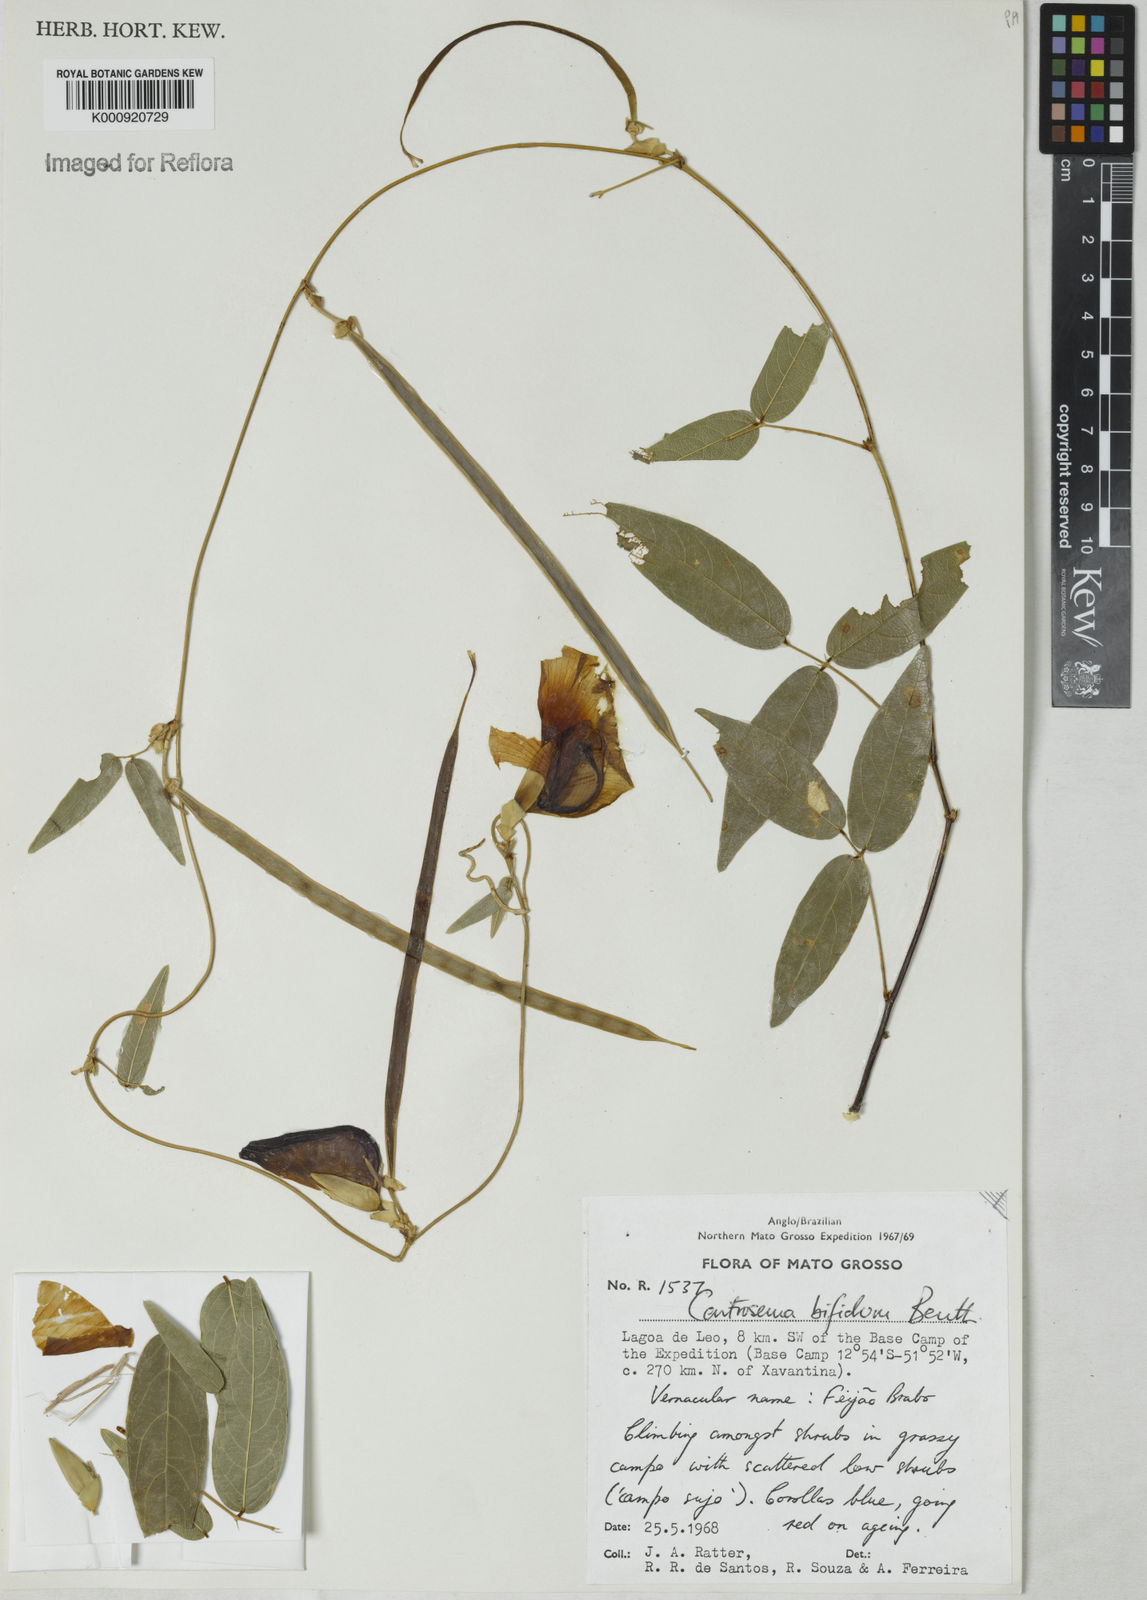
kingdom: Plantae
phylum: Tracheophyta
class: Magnoliopsida
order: Fabales
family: Fabaceae
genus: Centrosema
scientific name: Centrosema bifidum
